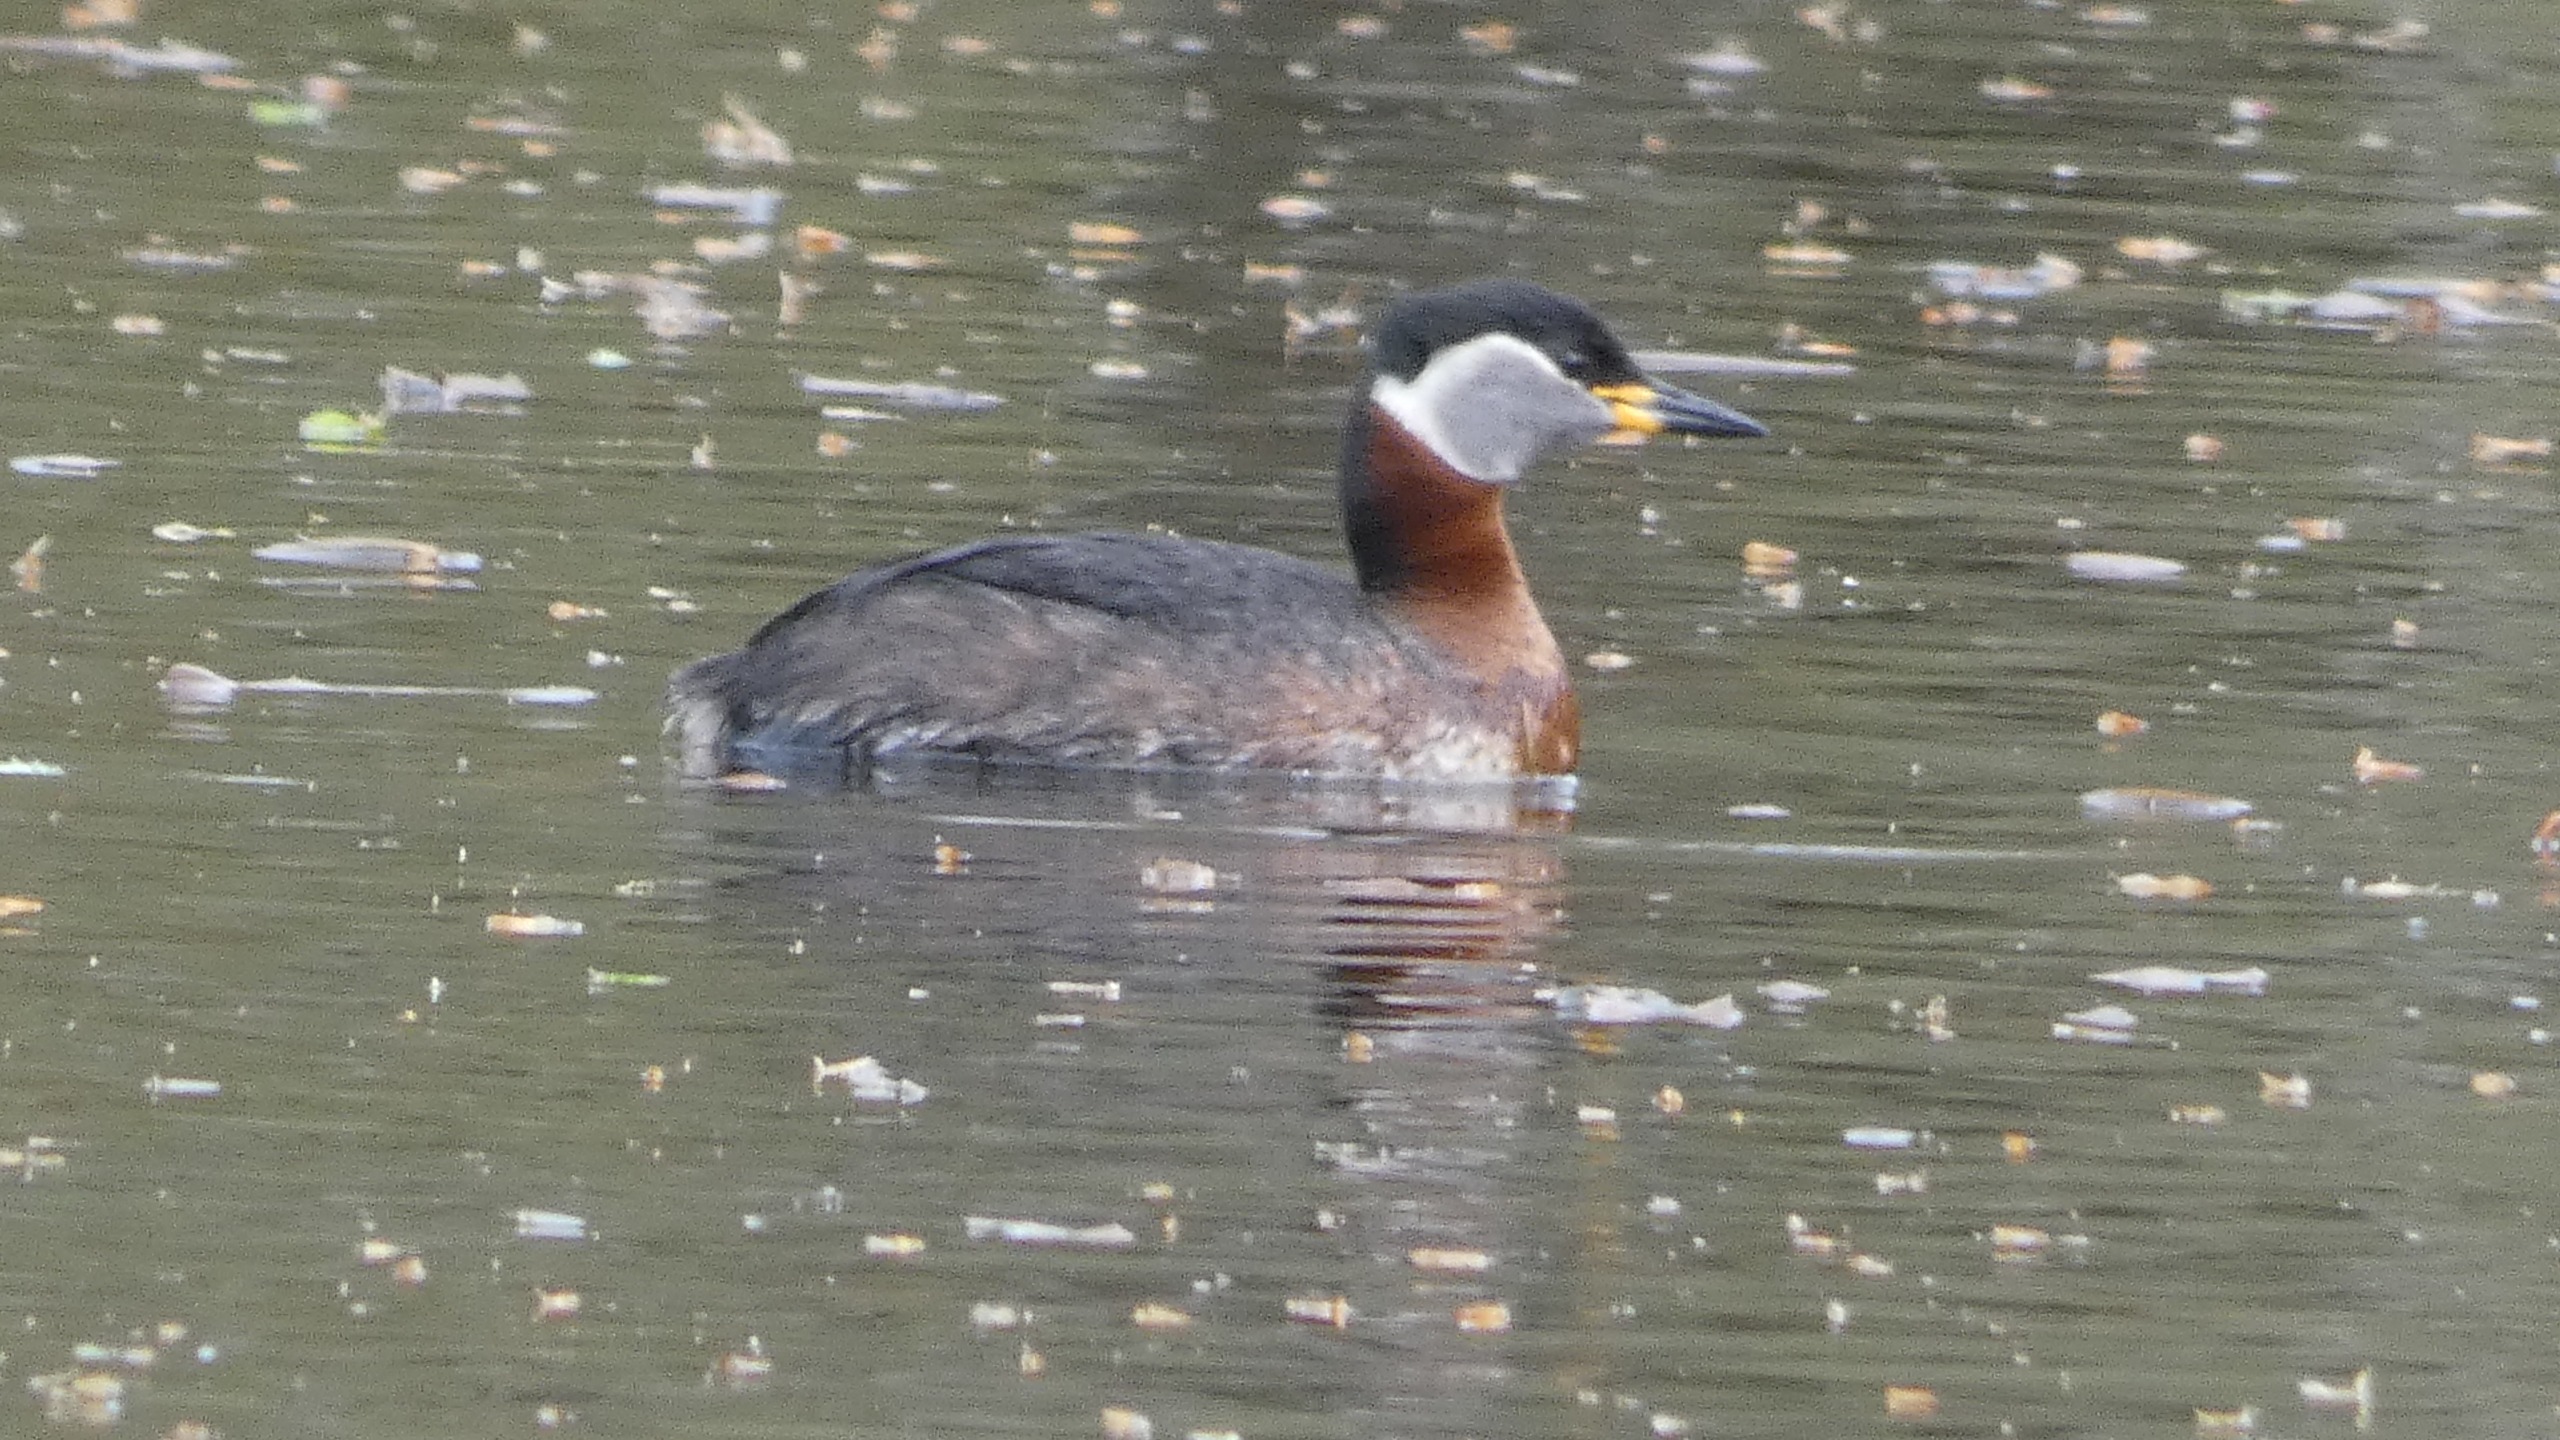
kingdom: Animalia
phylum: Chordata
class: Aves
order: Podicipediformes
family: Podicipedidae
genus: Podiceps
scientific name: Podiceps grisegena
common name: Gråstrubet lappedykker
